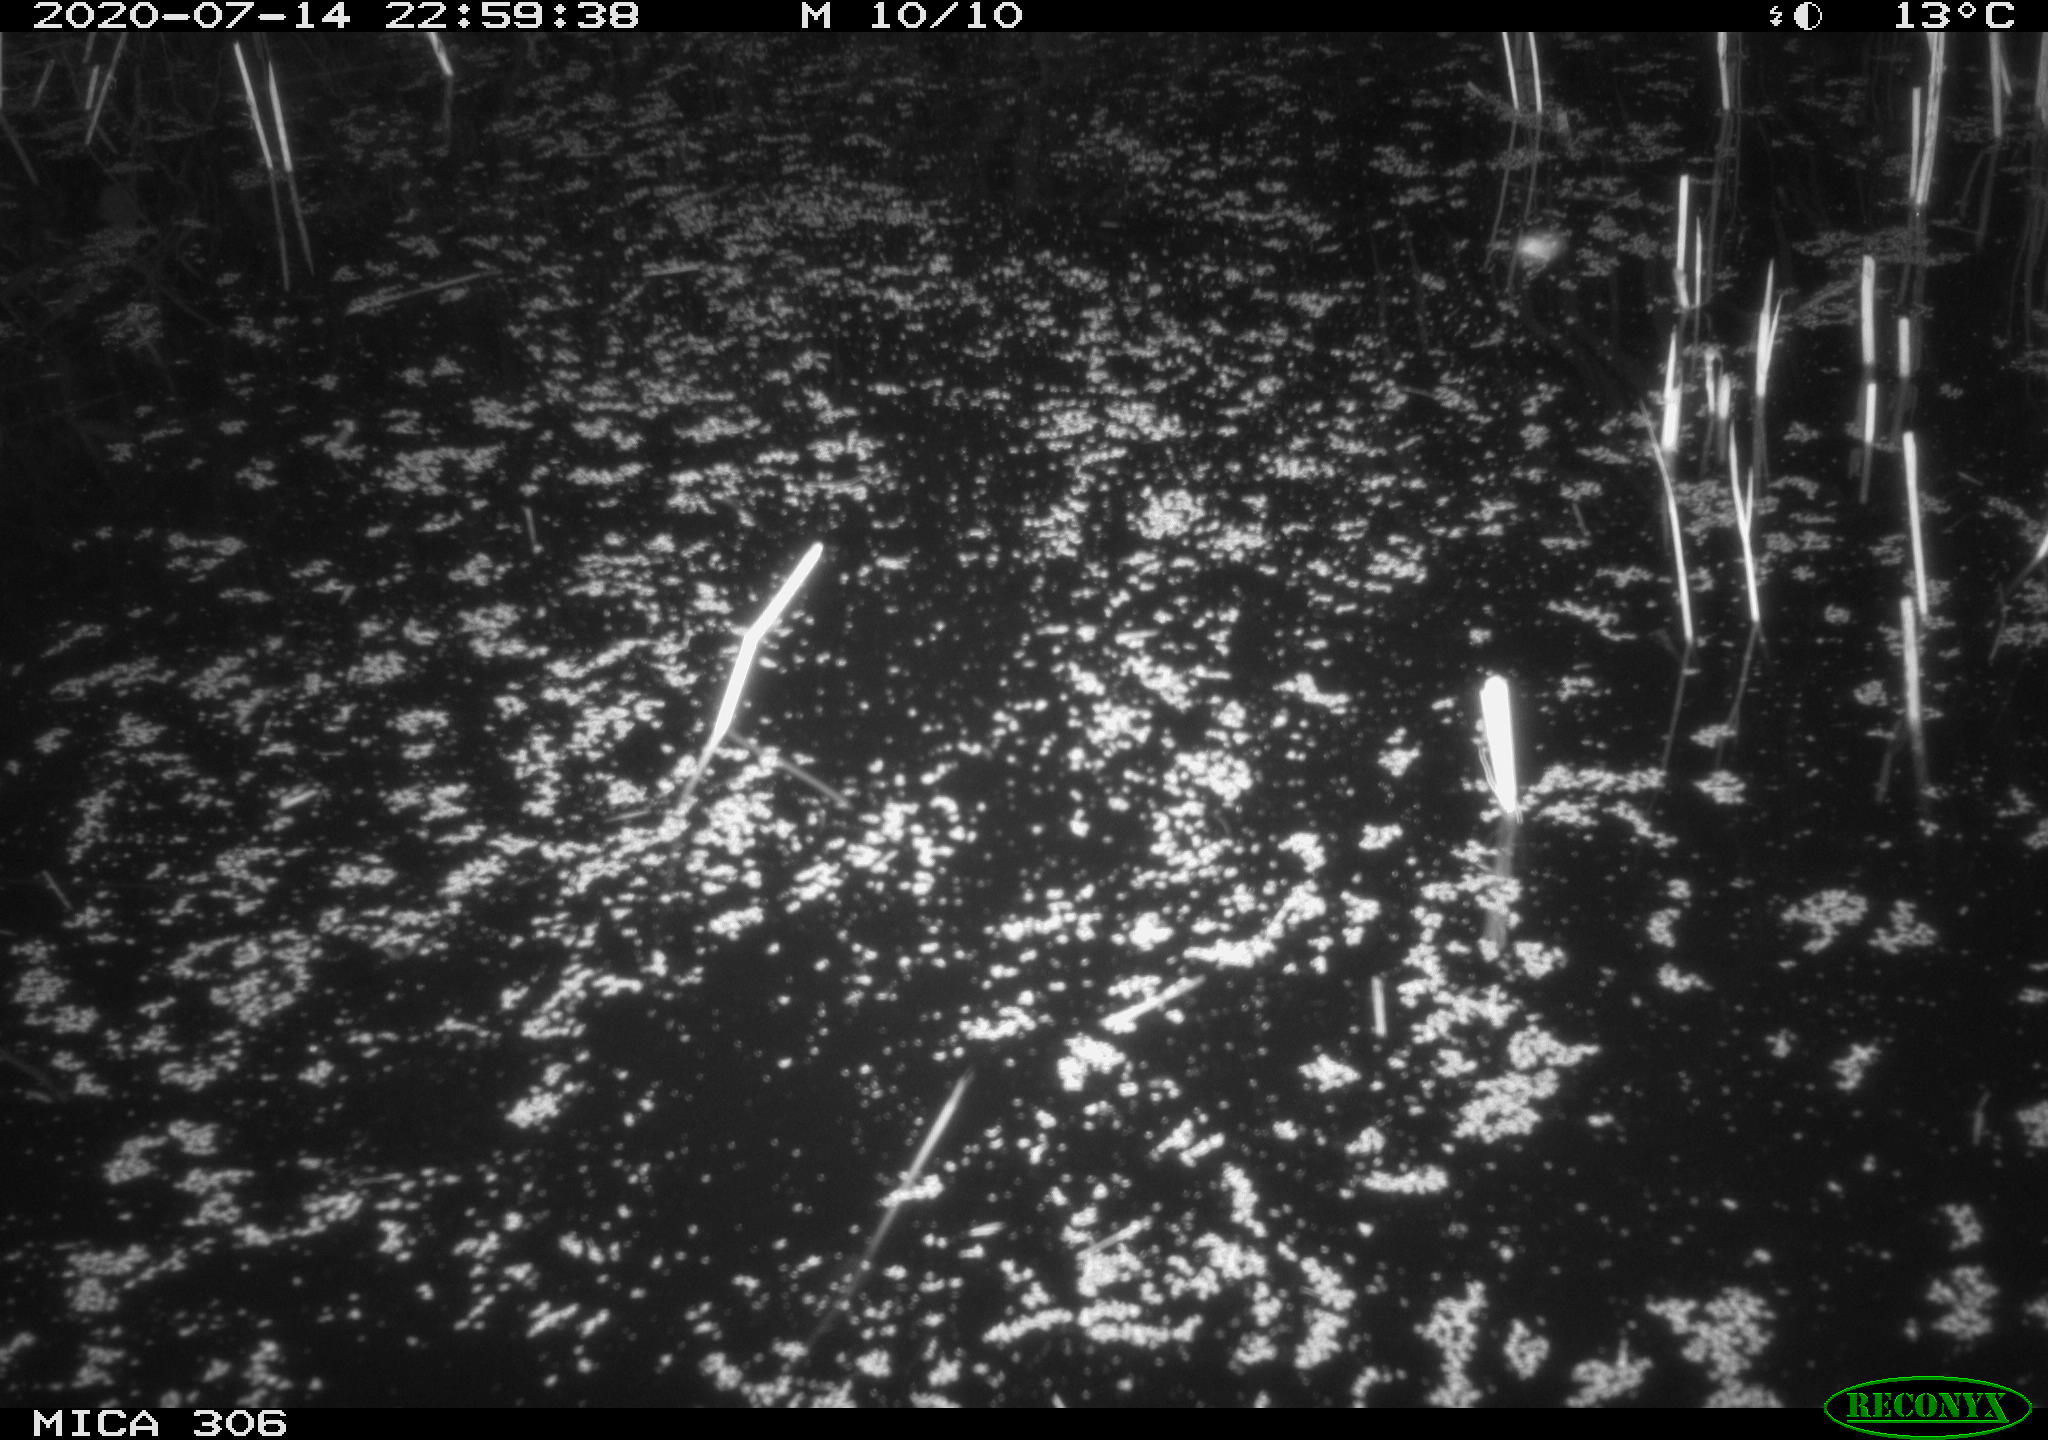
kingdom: Animalia
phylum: Chordata
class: Mammalia
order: Rodentia
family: Cricetidae
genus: Ondatra
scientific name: Ondatra zibethicus
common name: Muskrat
